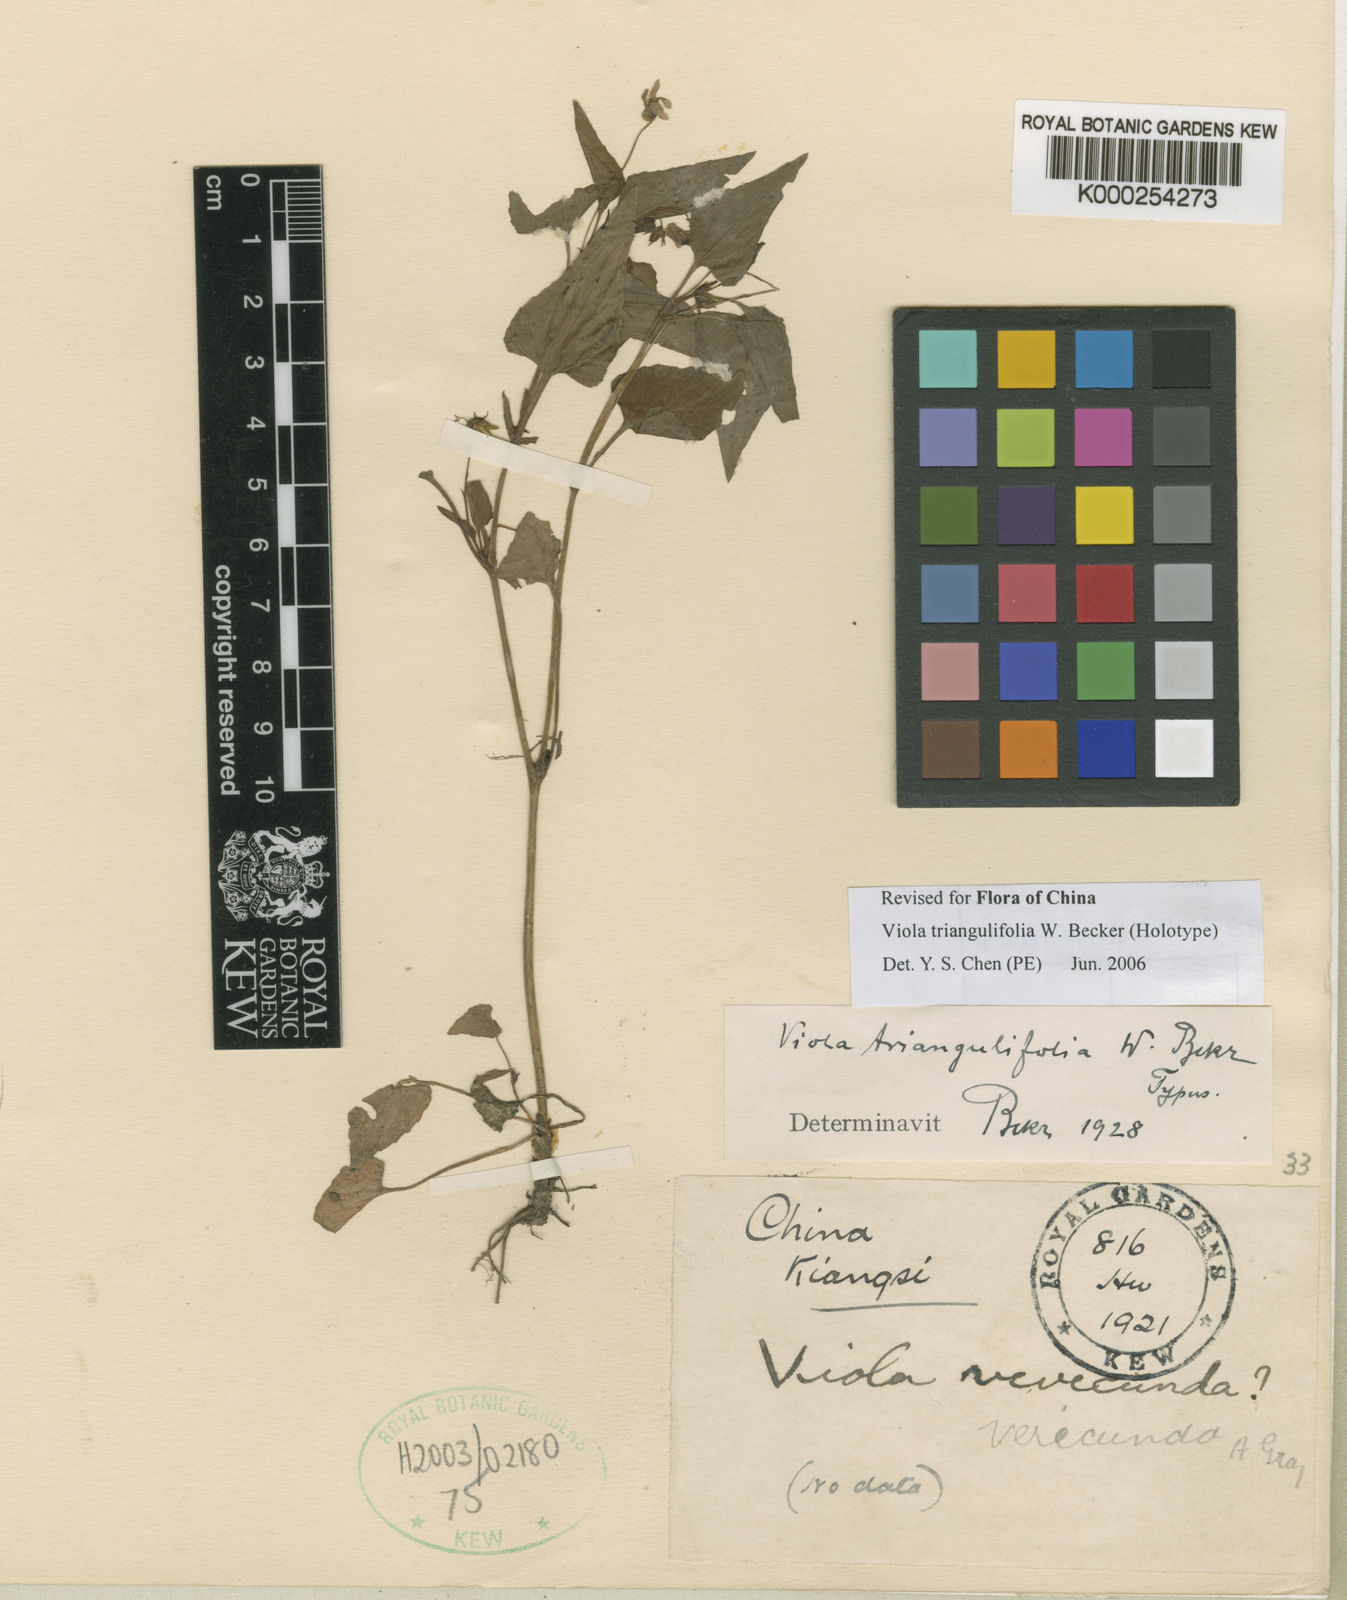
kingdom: Plantae
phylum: Tracheophyta
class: Magnoliopsida
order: Malpighiales
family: Violaceae
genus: Viola
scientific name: Viola triangulifolia
